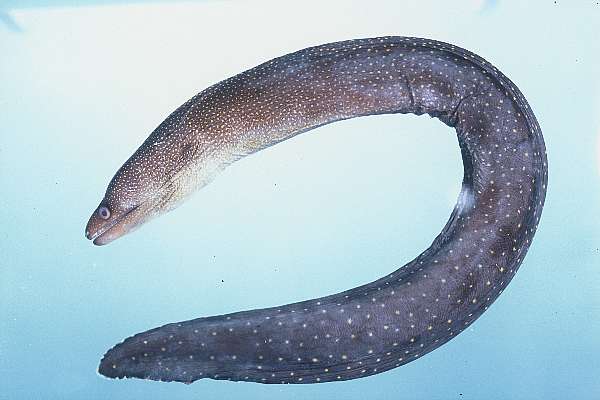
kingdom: Animalia
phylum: Chordata
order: Anguilliformes
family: Muraenidae
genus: Gymnothorax
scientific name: Gymnothorax eurostus
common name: Stout moray
